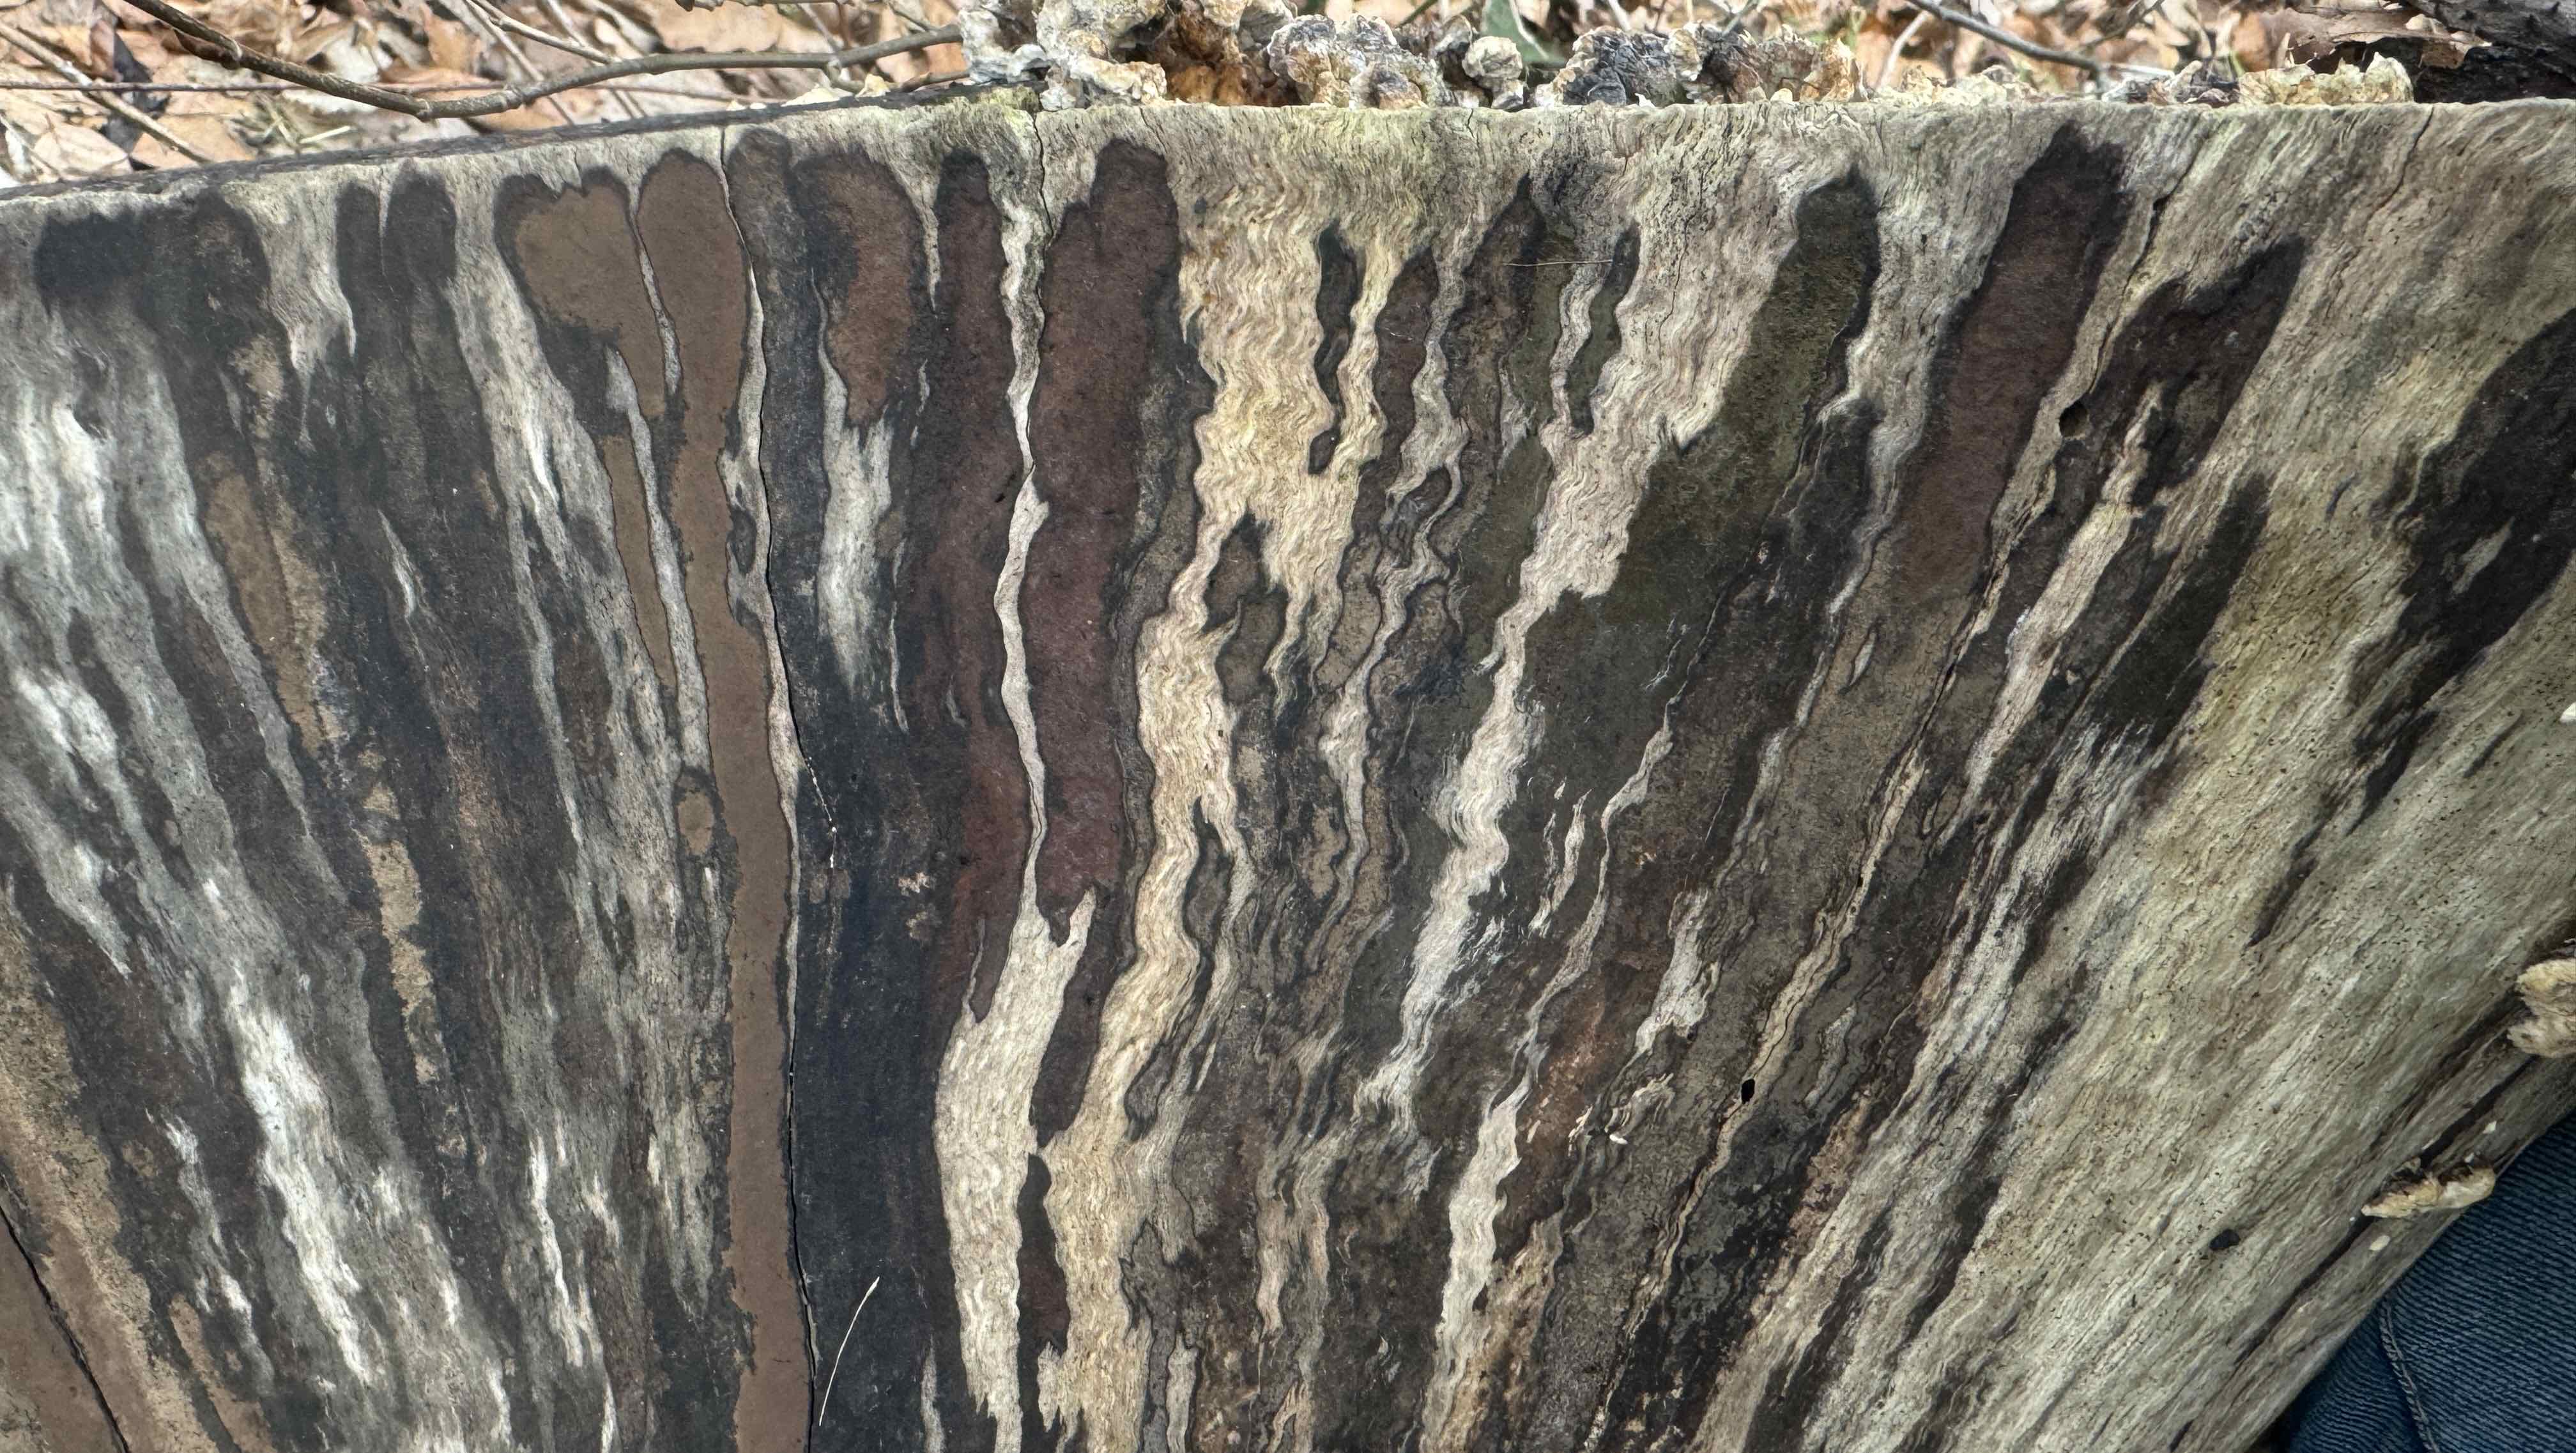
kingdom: Fungi
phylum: Ascomycota
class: Sordariomycetes
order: Xylariales
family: Hypoxylaceae
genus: Hypoxylon
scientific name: Hypoxylon petriniae
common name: nedsænket kulbær
